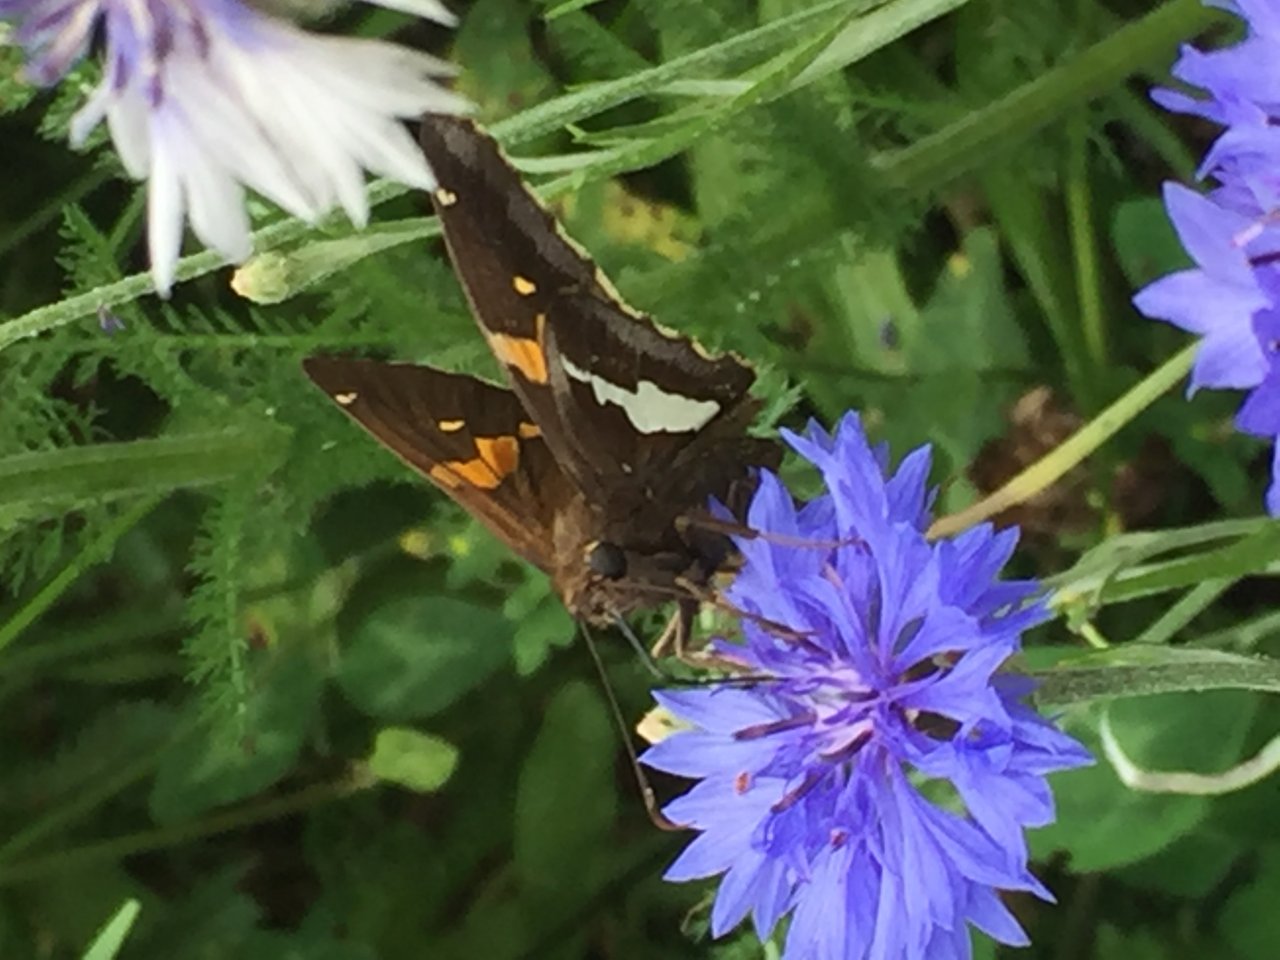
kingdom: Animalia
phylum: Arthropoda
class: Insecta
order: Lepidoptera
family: Hesperiidae
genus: Epargyreus
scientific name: Epargyreus clarus
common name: Silver-spotted Skipper
